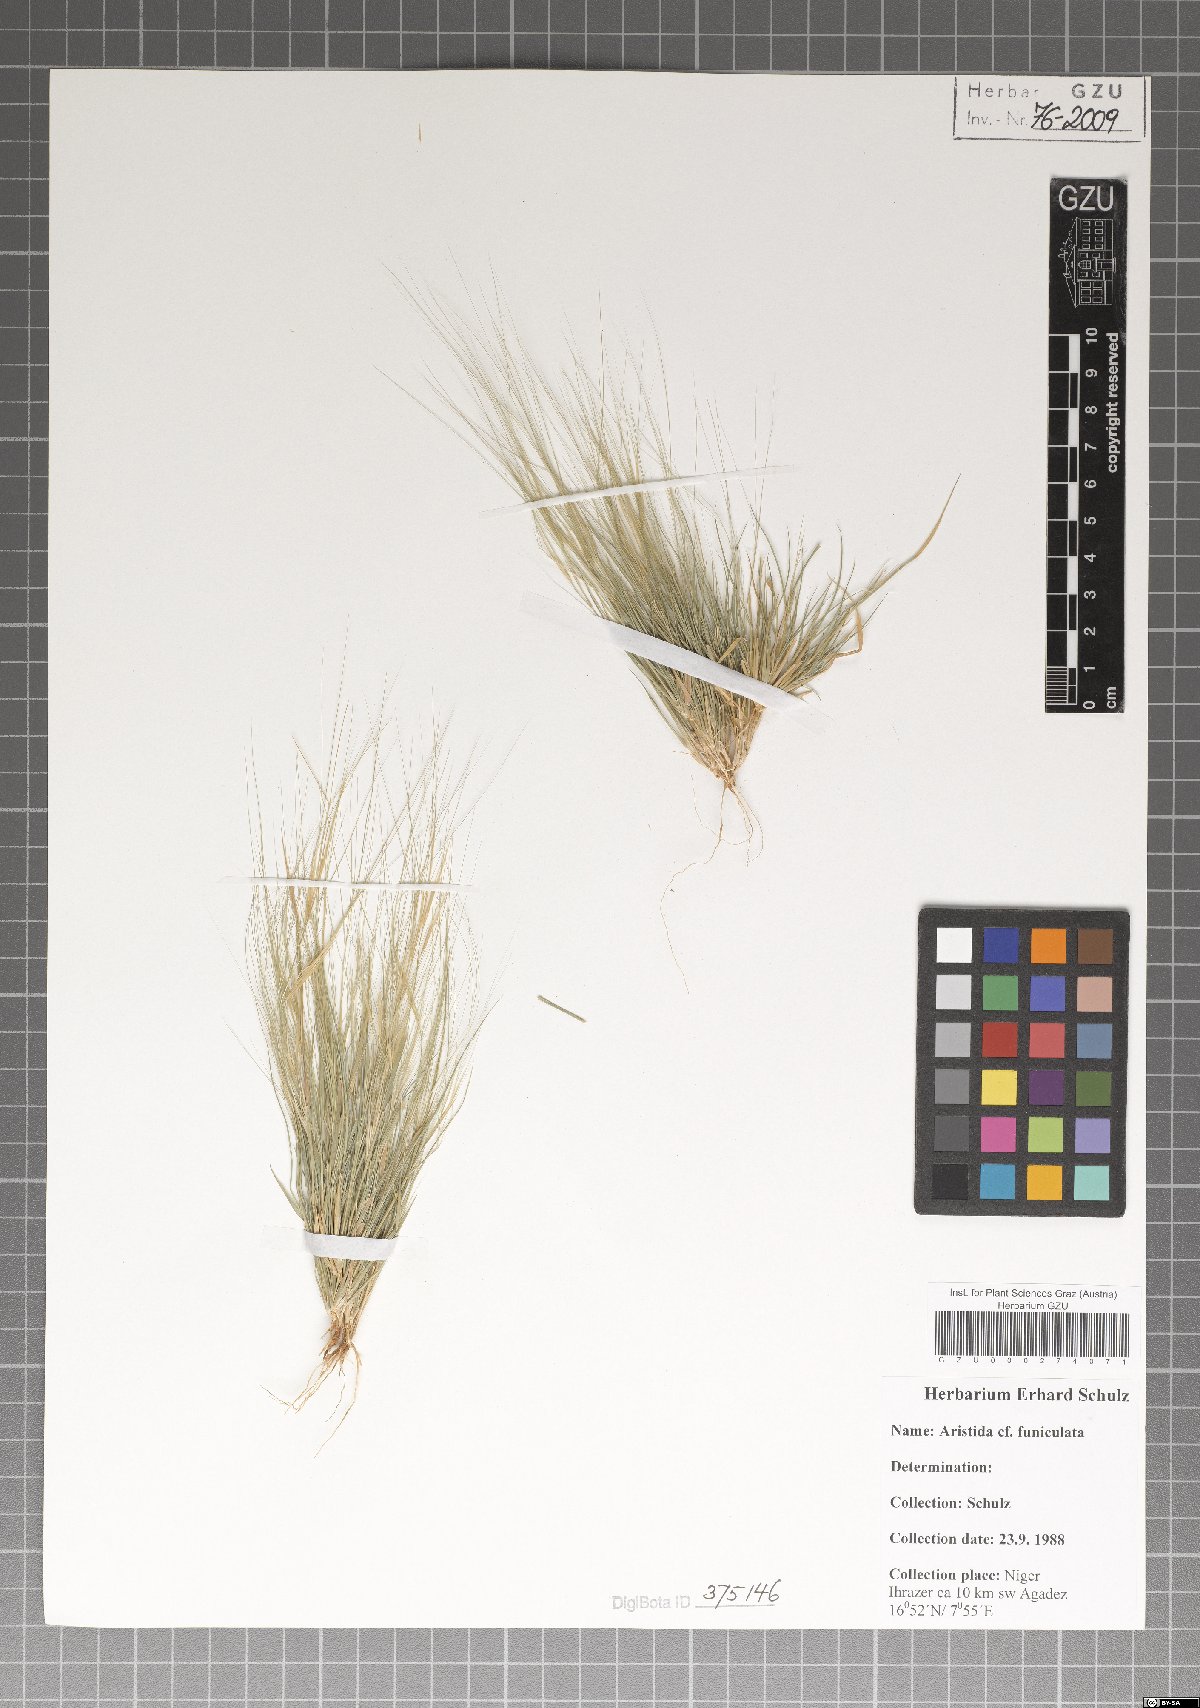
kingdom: Plantae
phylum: Tracheophyta
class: Liliopsida
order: Poales
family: Poaceae
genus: Aristida
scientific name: Aristida funiculata
